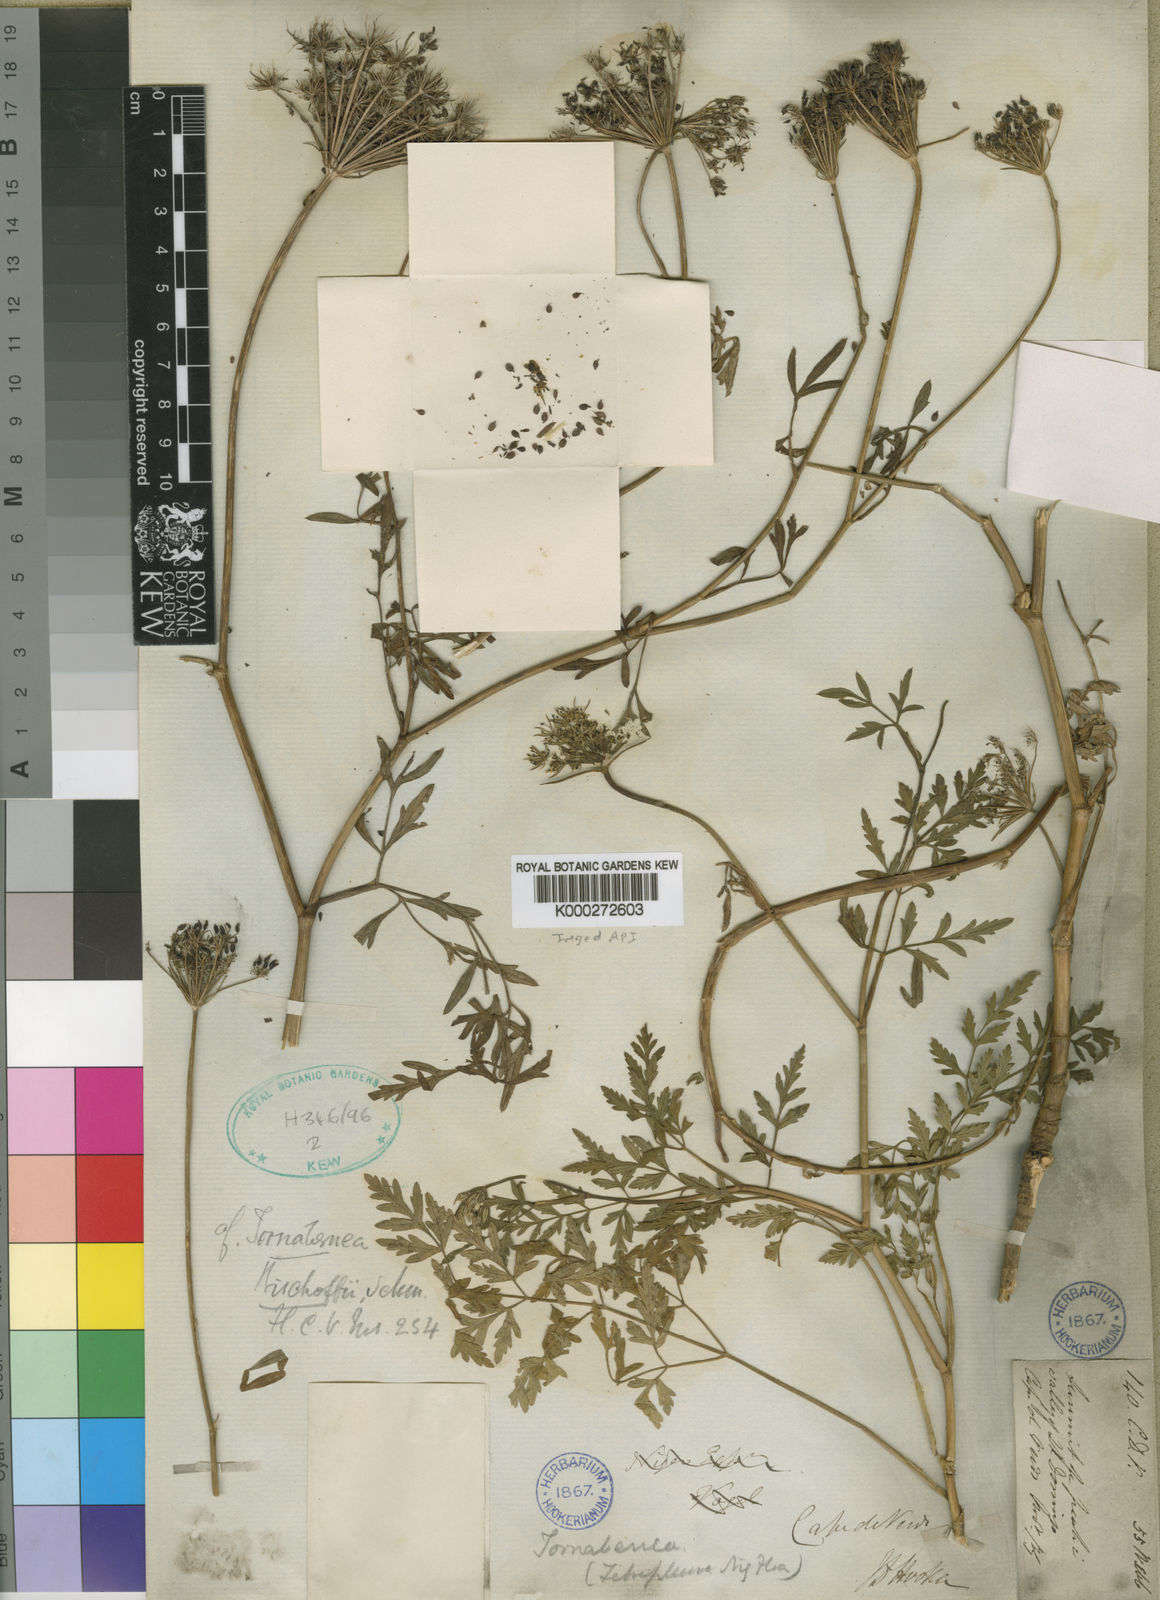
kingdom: Plantae
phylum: Tracheophyta
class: Magnoliopsida
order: Apiales
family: Apiaceae
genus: Daucus
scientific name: Daucus insularis
